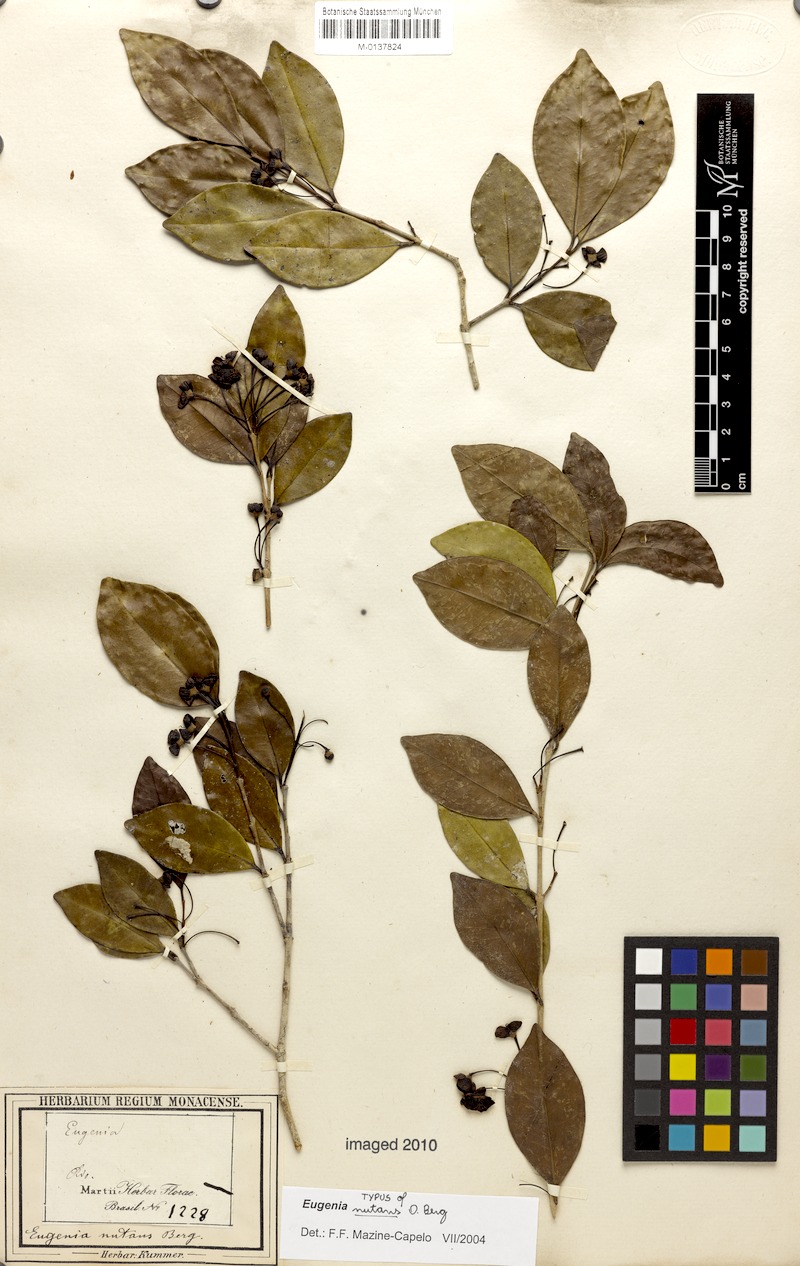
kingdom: Plantae
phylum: Tracheophyta
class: Magnoliopsida
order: Myrtales
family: Myrtaceae
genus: Eugenia
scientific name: Eugenia nutans
